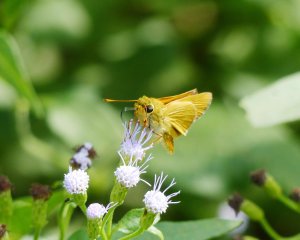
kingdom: Animalia
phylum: Arthropoda
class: Insecta
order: Lepidoptera
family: Hesperiidae
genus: Mellana
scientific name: Mellana eulogius
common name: Common Mellana
